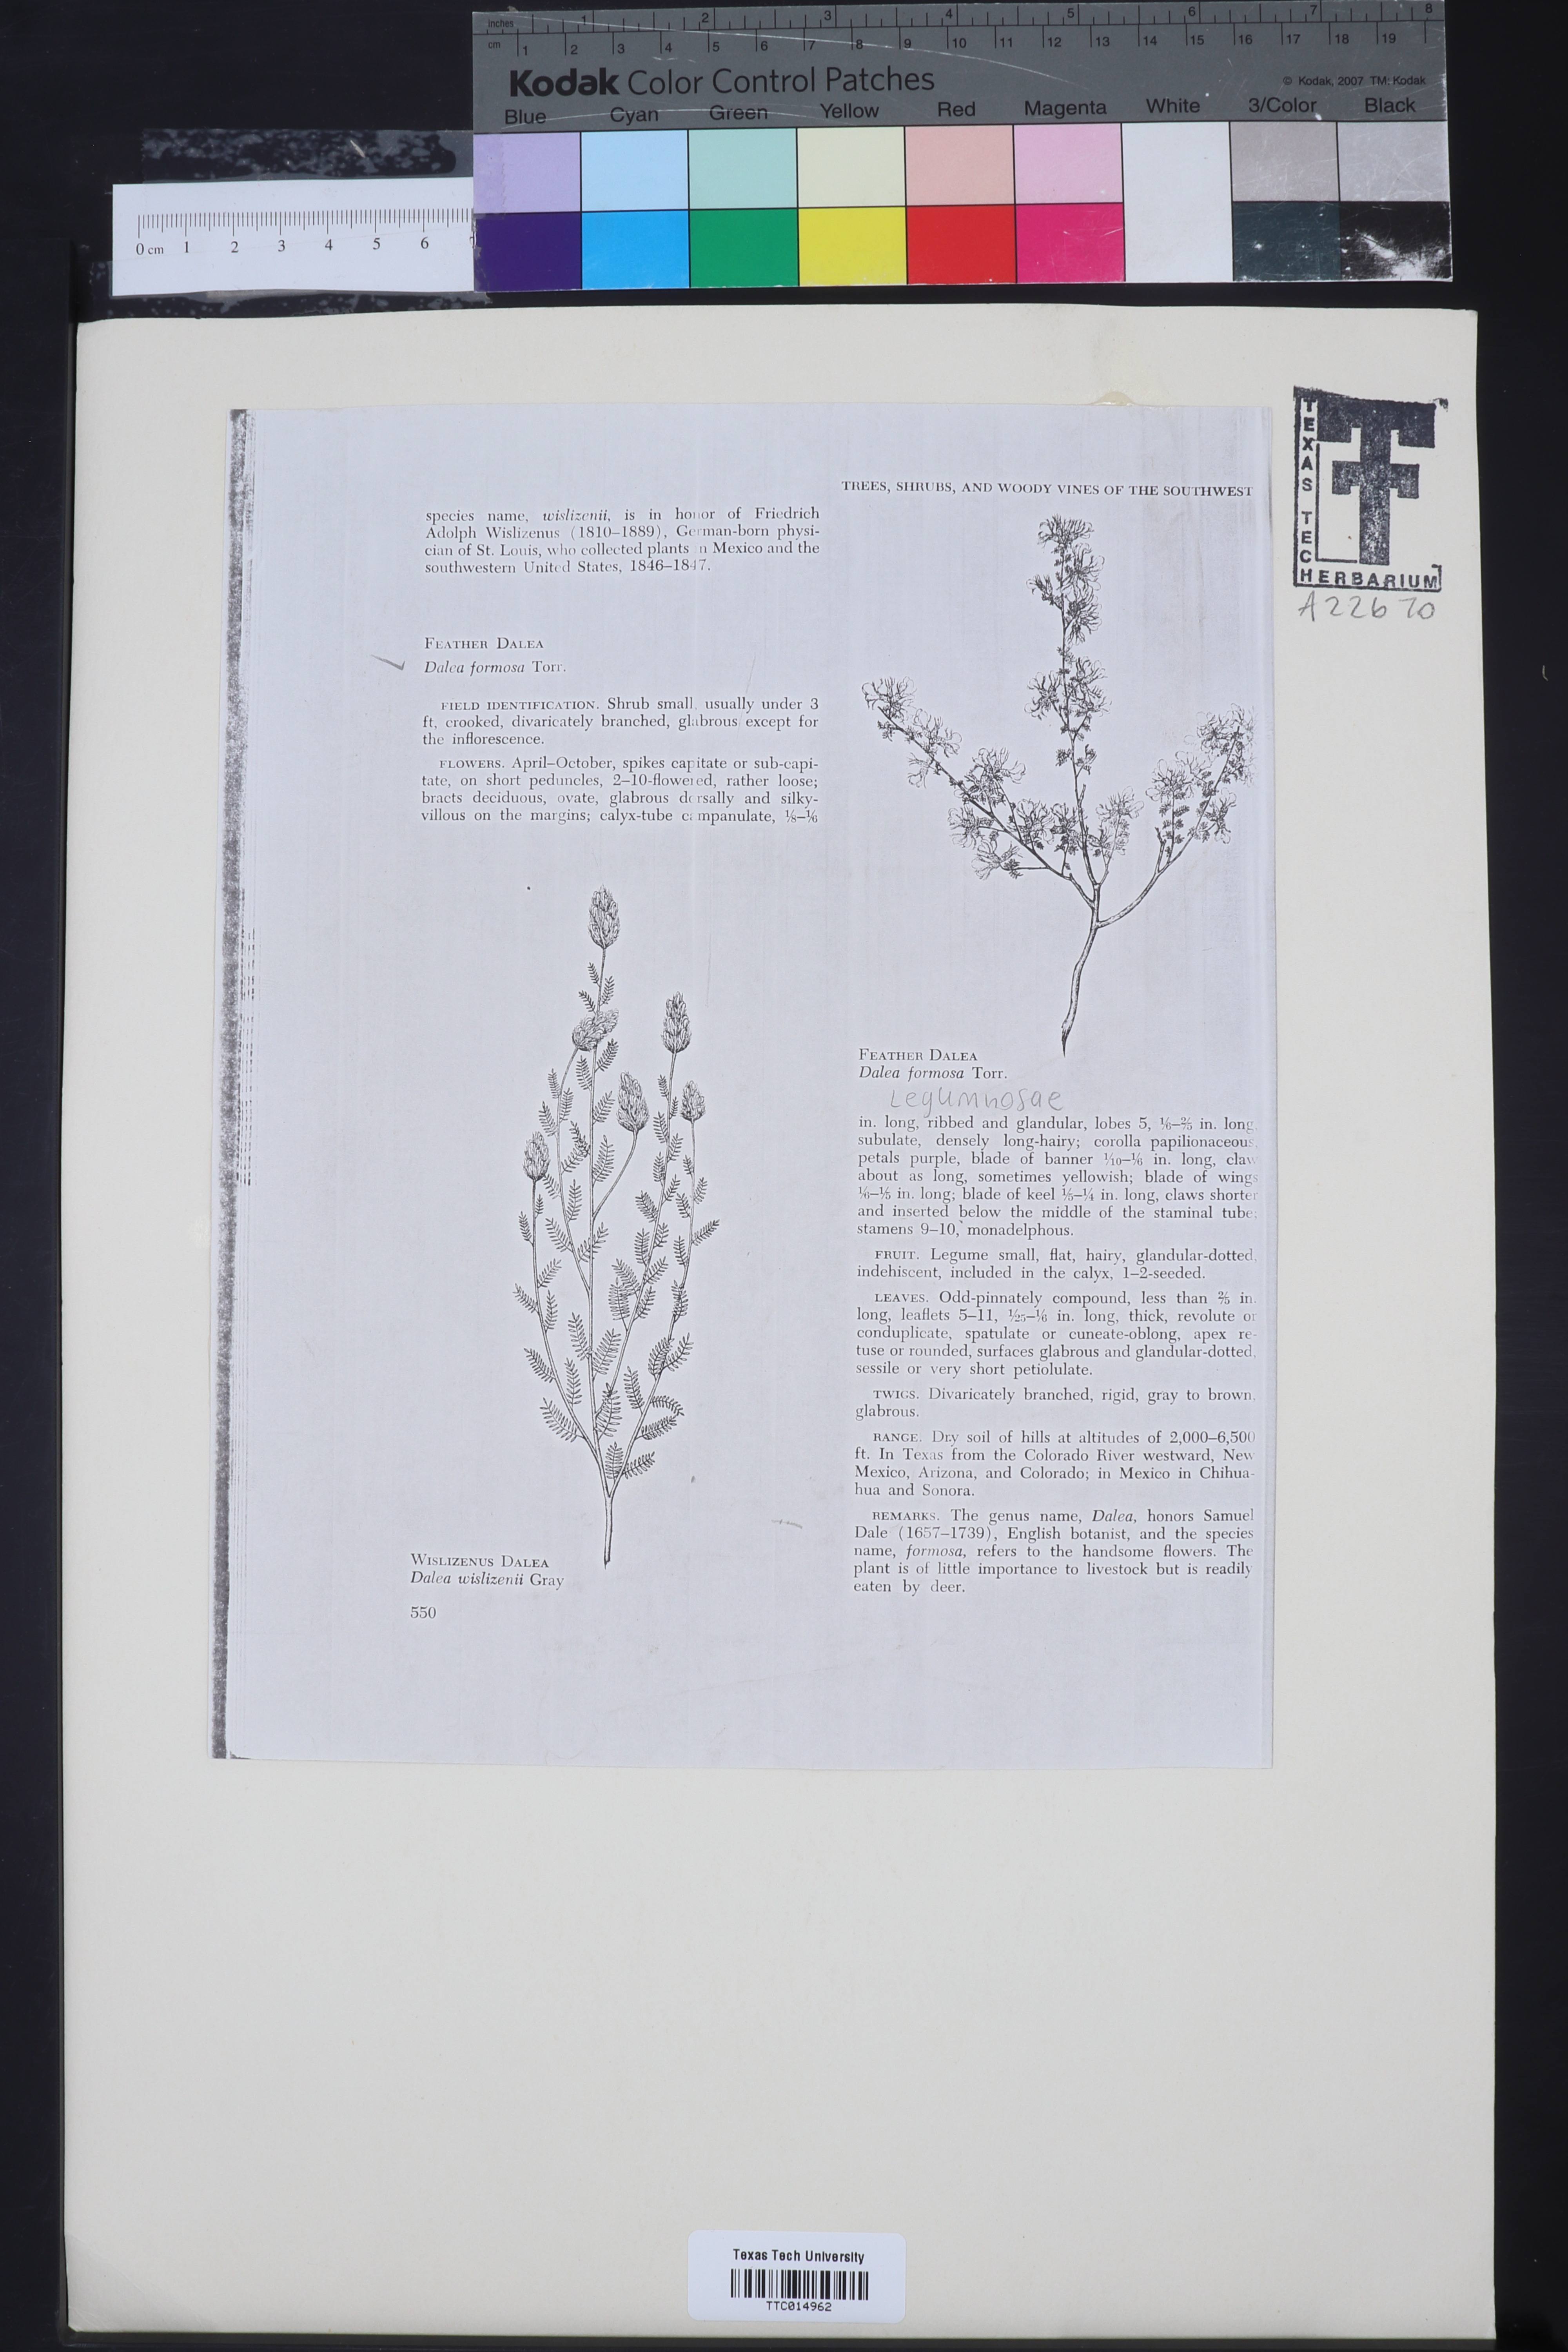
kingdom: Plantae
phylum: Tracheophyta
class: Magnoliopsida
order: Fabales
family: Fabaceae
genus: Dalea
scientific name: Dalea formosa
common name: Feather-plume dalea
